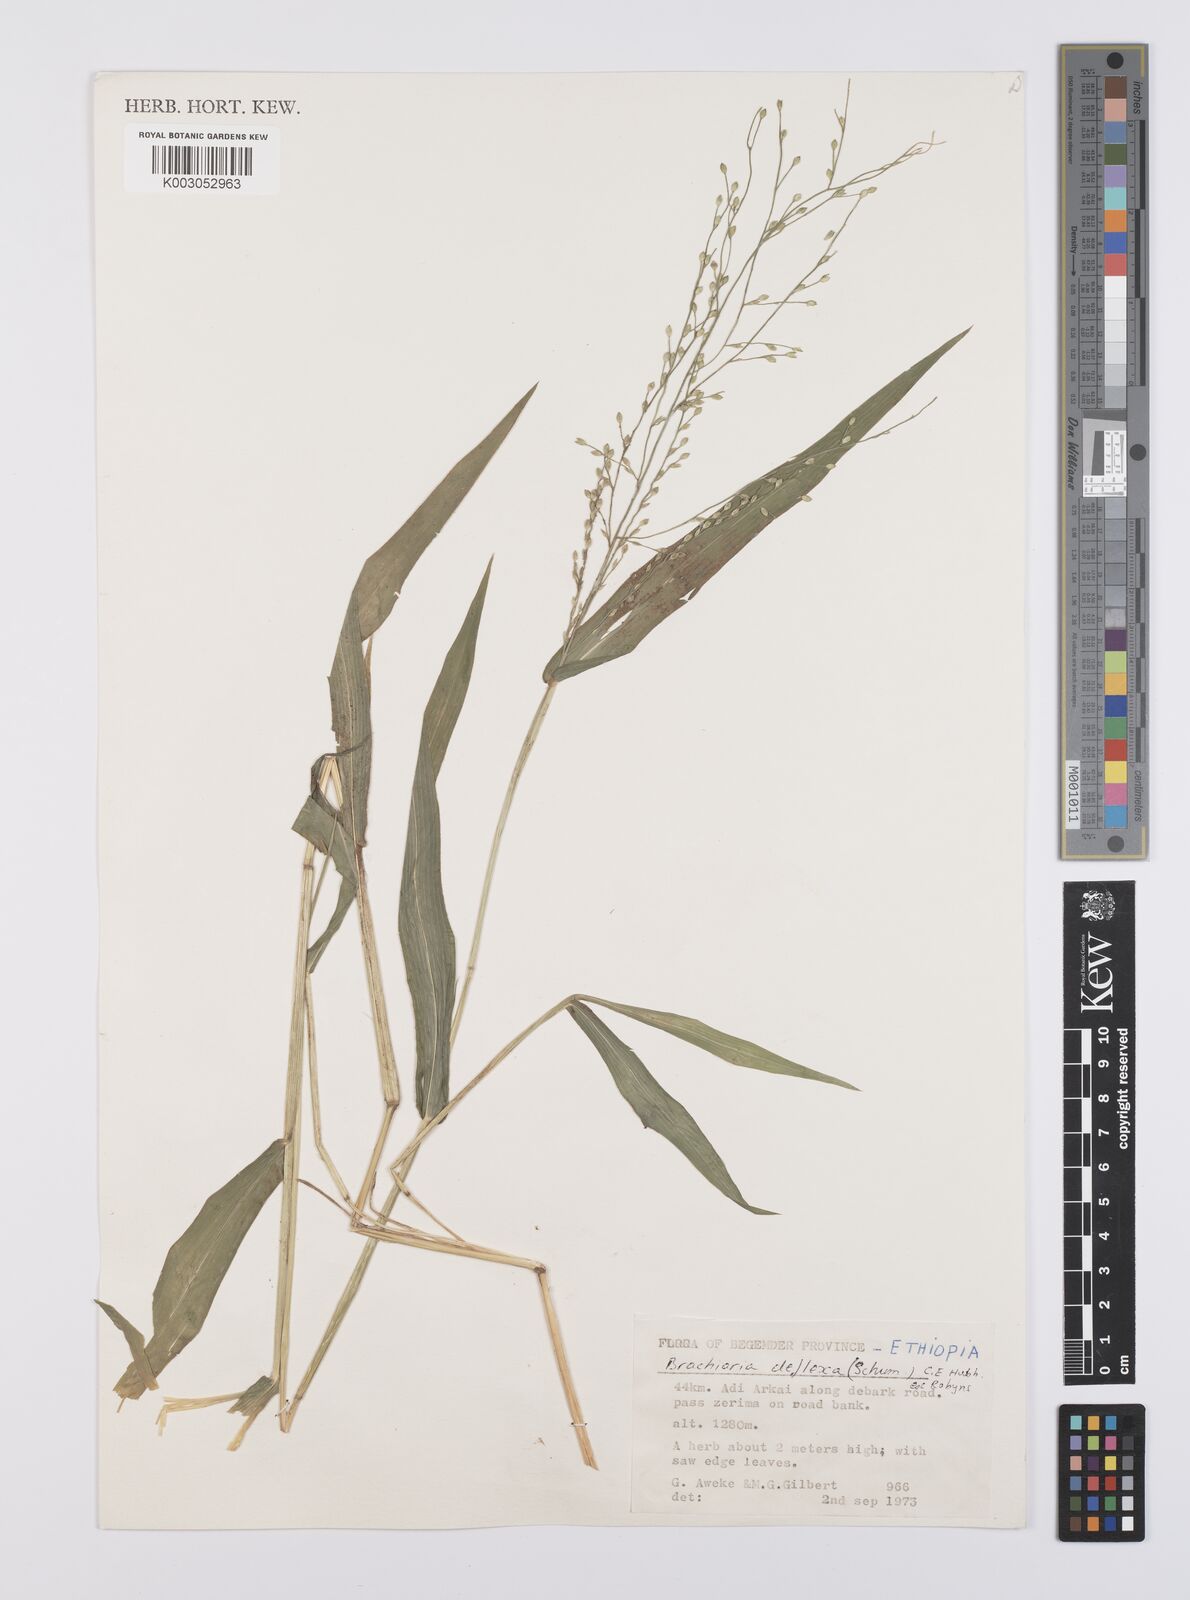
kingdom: Plantae
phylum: Tracheophyta
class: Liliopsida
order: Poales
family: Poaceae
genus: Urochloa
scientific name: Urochloa deflexa
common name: Guinea millet
